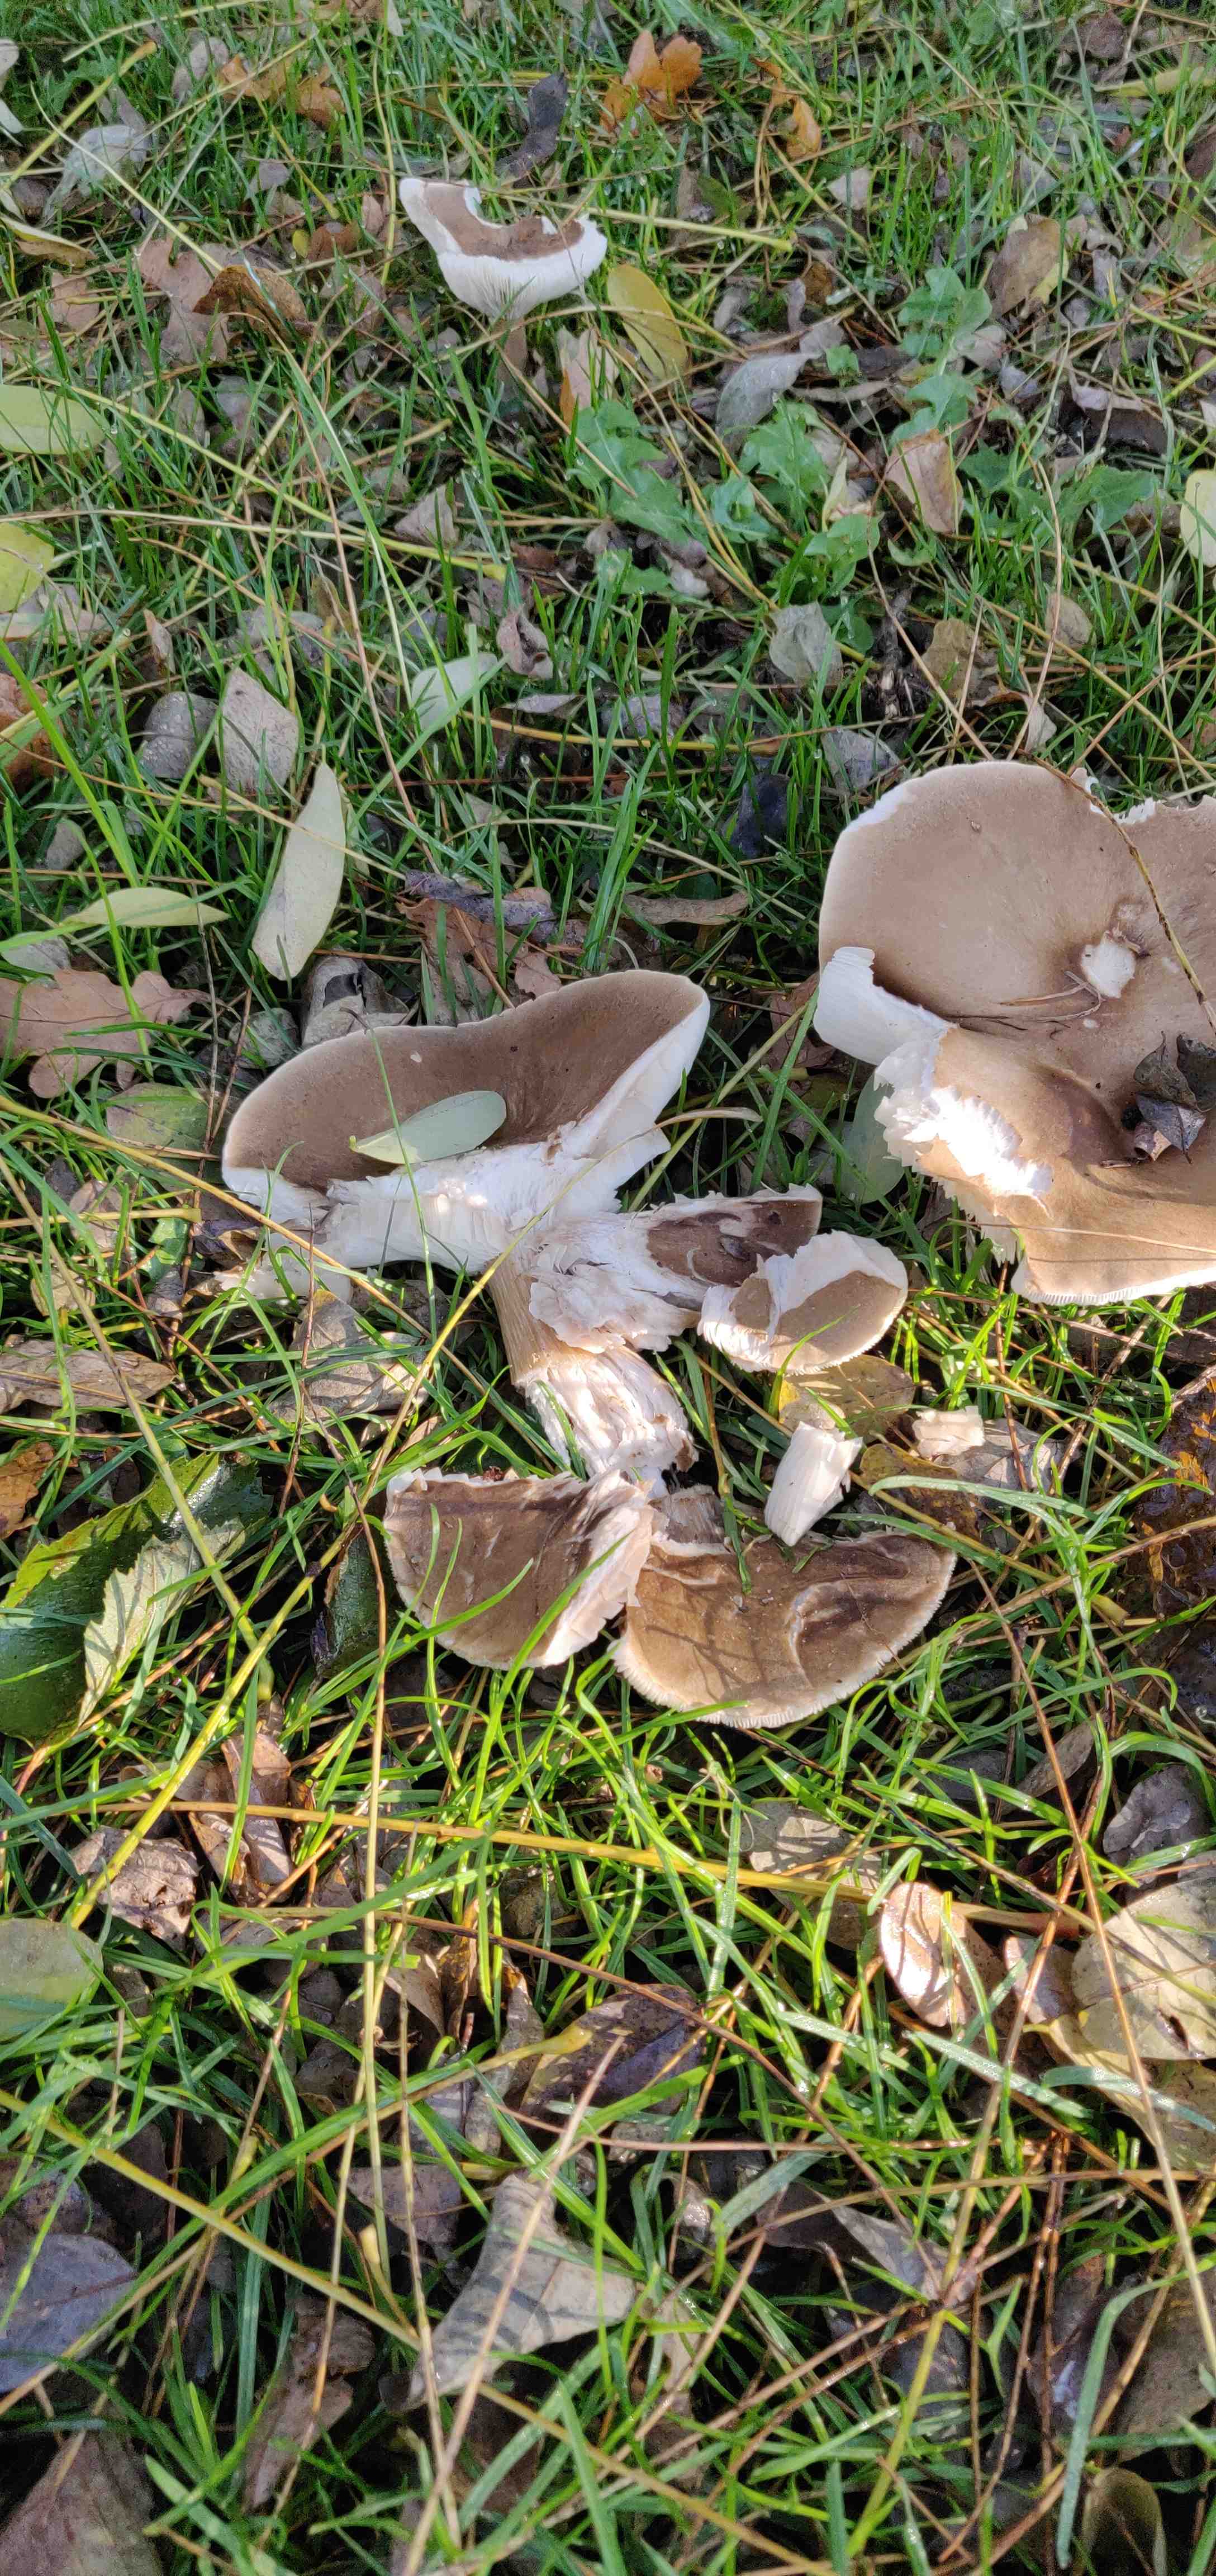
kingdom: Fungi
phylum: Basidiomycota
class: Agaricomycetes
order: Agaricales
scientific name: Agaricales
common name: champignonordenen
